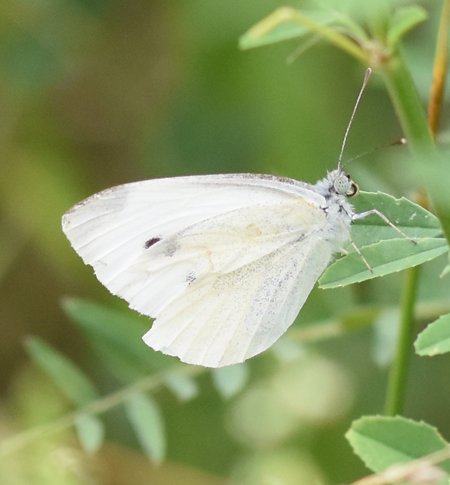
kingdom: Animalia
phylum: Arthropoda
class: Insecta
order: Lepidoptera
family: Pieridae
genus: Pieris
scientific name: Pieris rapae
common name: Cabbage White
